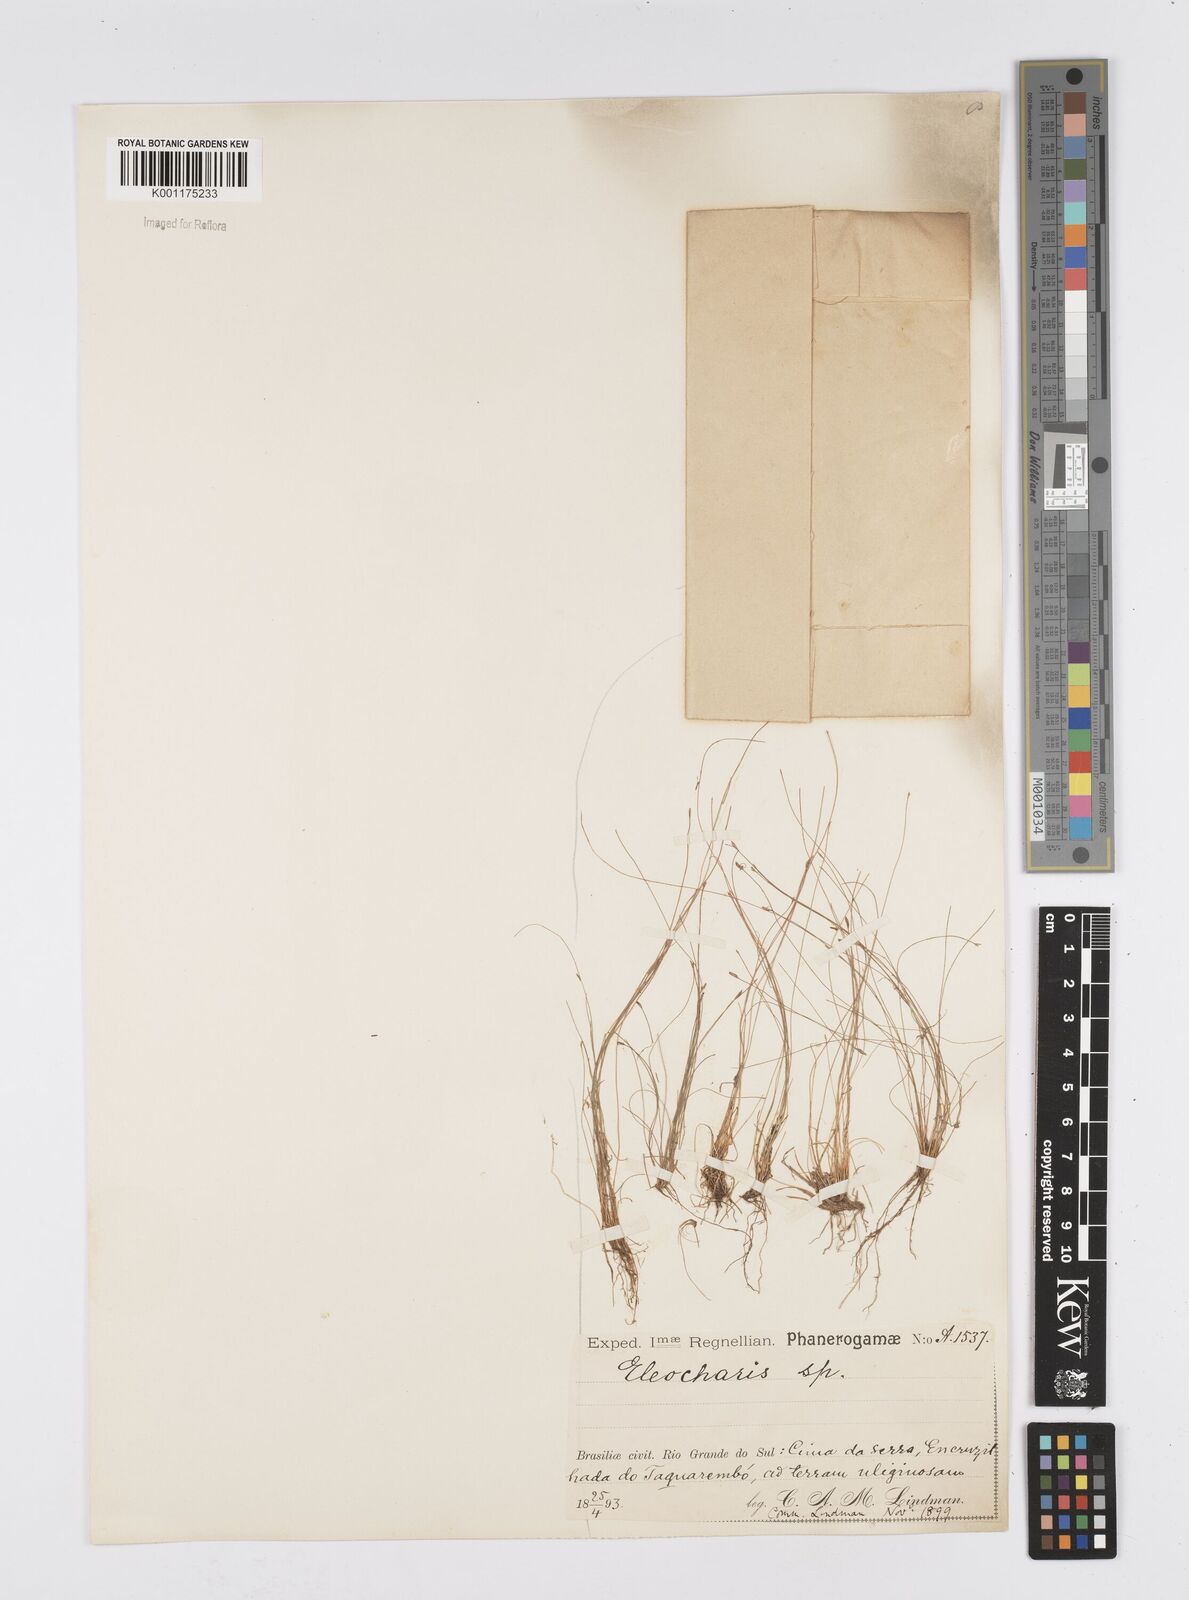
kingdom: Plantae
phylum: Tracheophyta
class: Liliopsida
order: Poales
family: Cyperaceae
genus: Eleocharis
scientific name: Eleocharis acicularis
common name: Needle spike-rush
